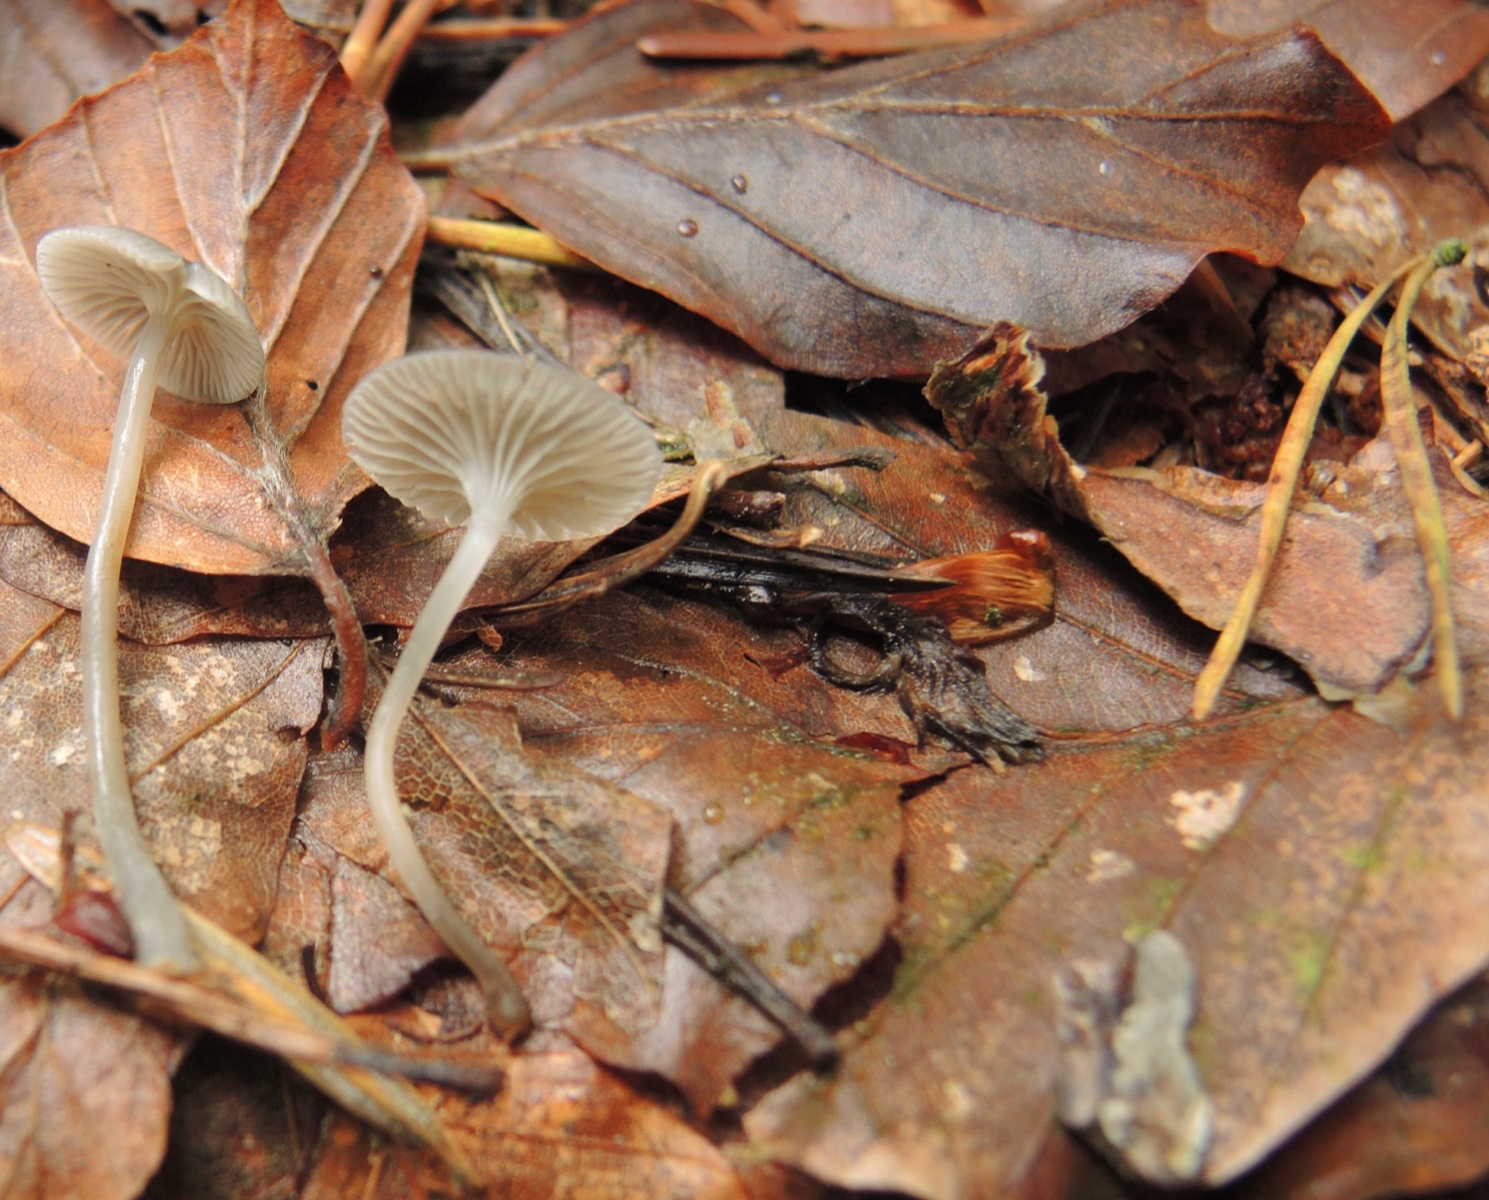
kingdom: Fungi
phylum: Basidiomycota
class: Agaricomycetes
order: Agaricales
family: Mycenaceae
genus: Mycena
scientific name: Mycena cinerella
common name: mel-huesvamp
